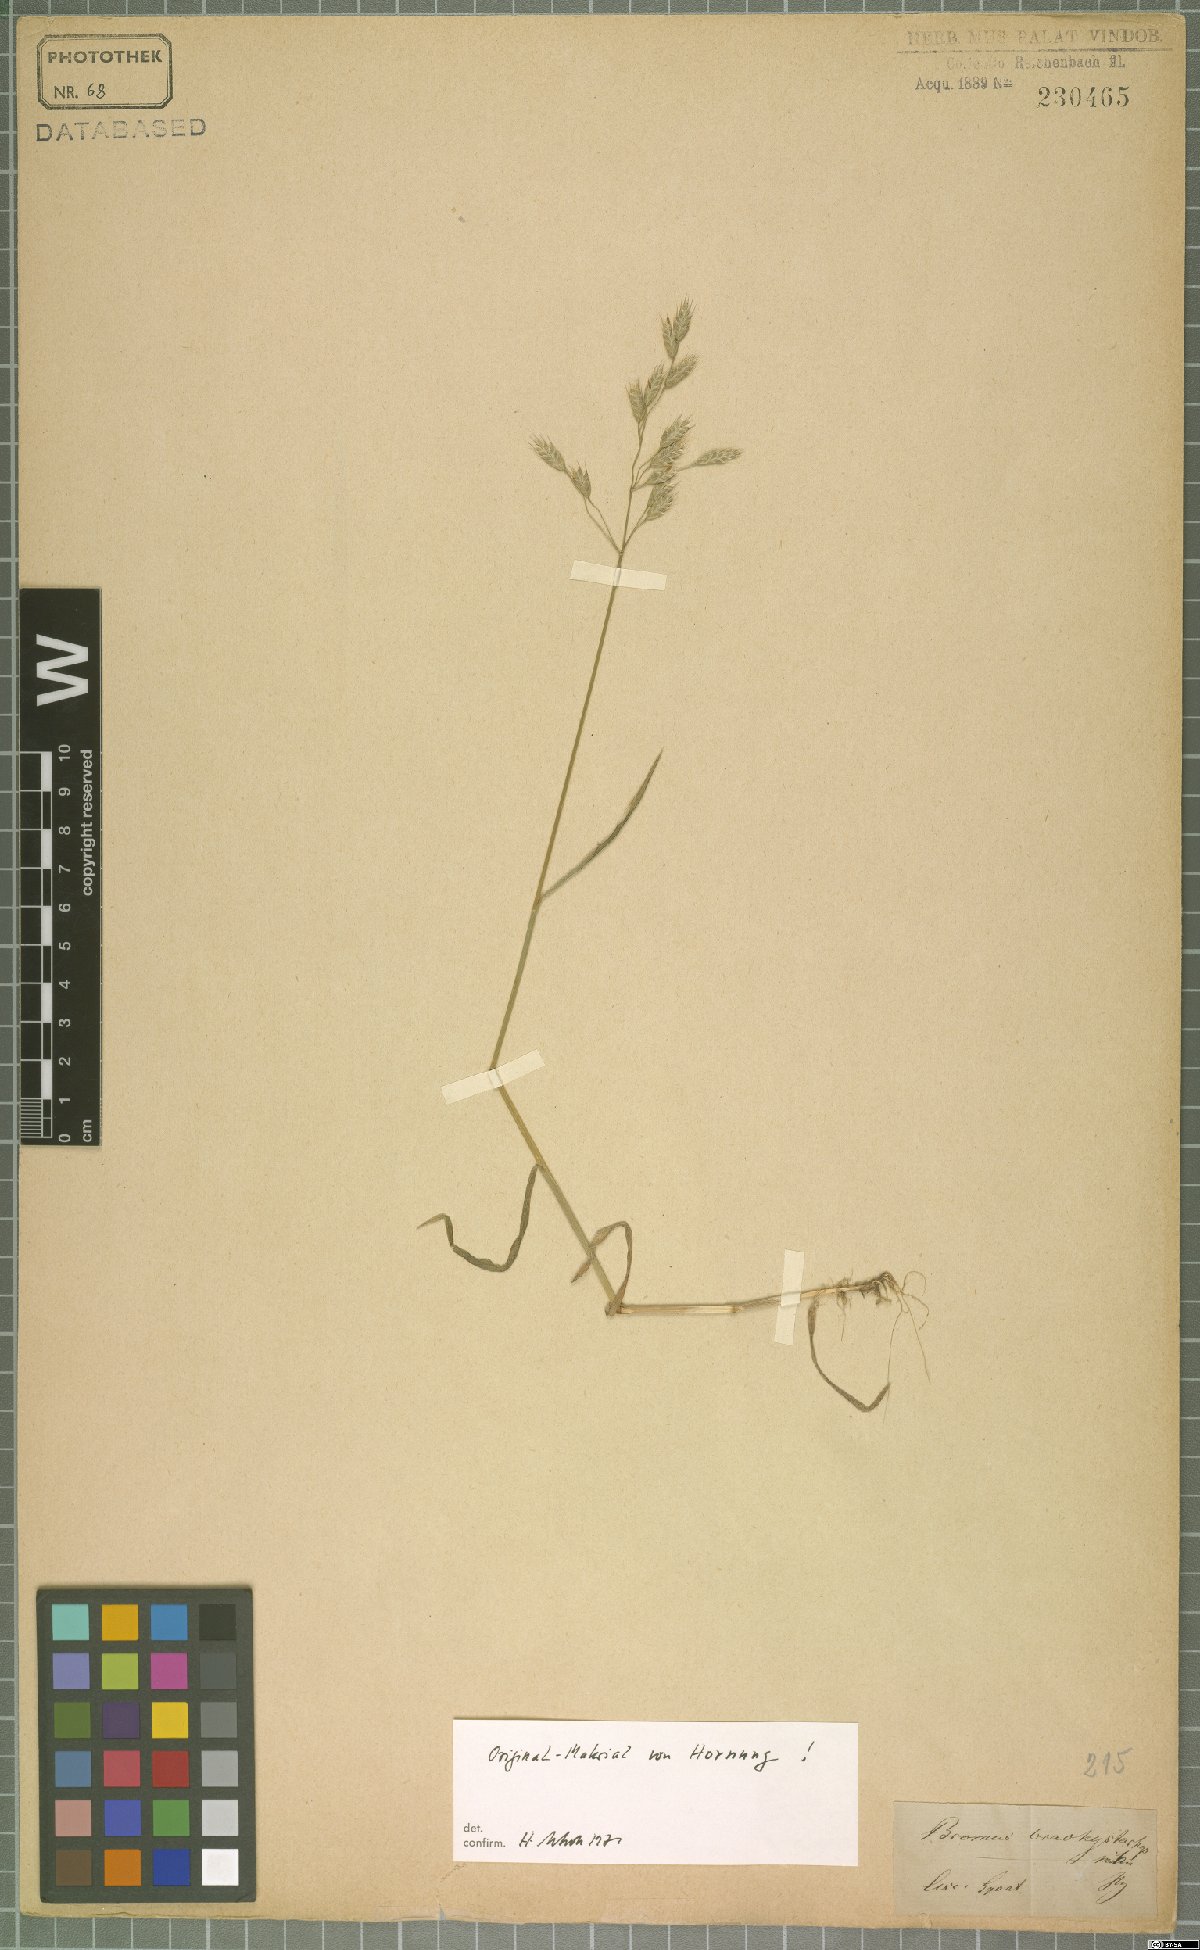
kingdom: Plantae
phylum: Tracheophyta
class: Liliopsida
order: Poales
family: Poaceae
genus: Bromus
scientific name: Bromus brachystachys
